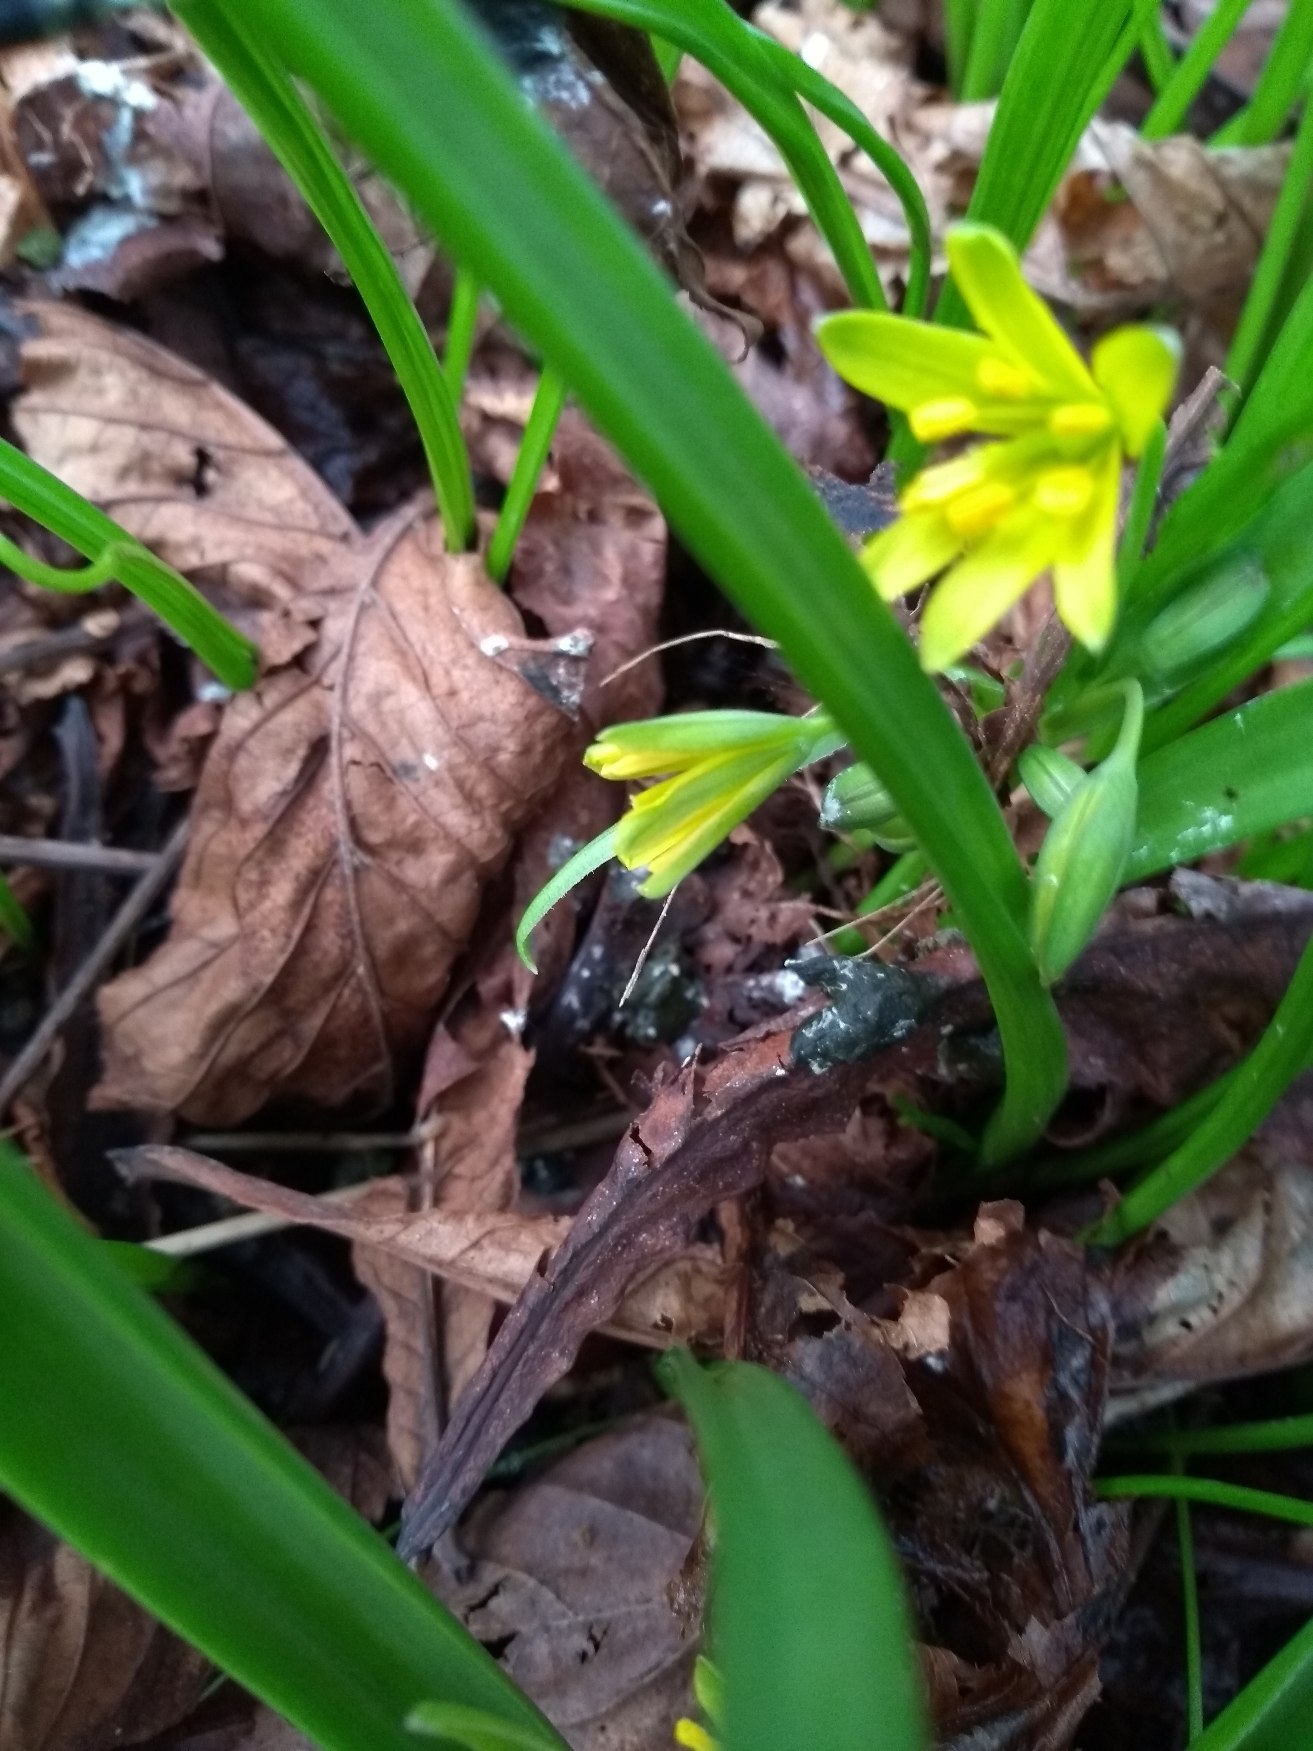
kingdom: Plantae
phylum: Tracheophyta
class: Liliopsida
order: Liliales
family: Liliaceae
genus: Gagea
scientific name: Gagea lutea
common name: Almindelig guldstjerne
